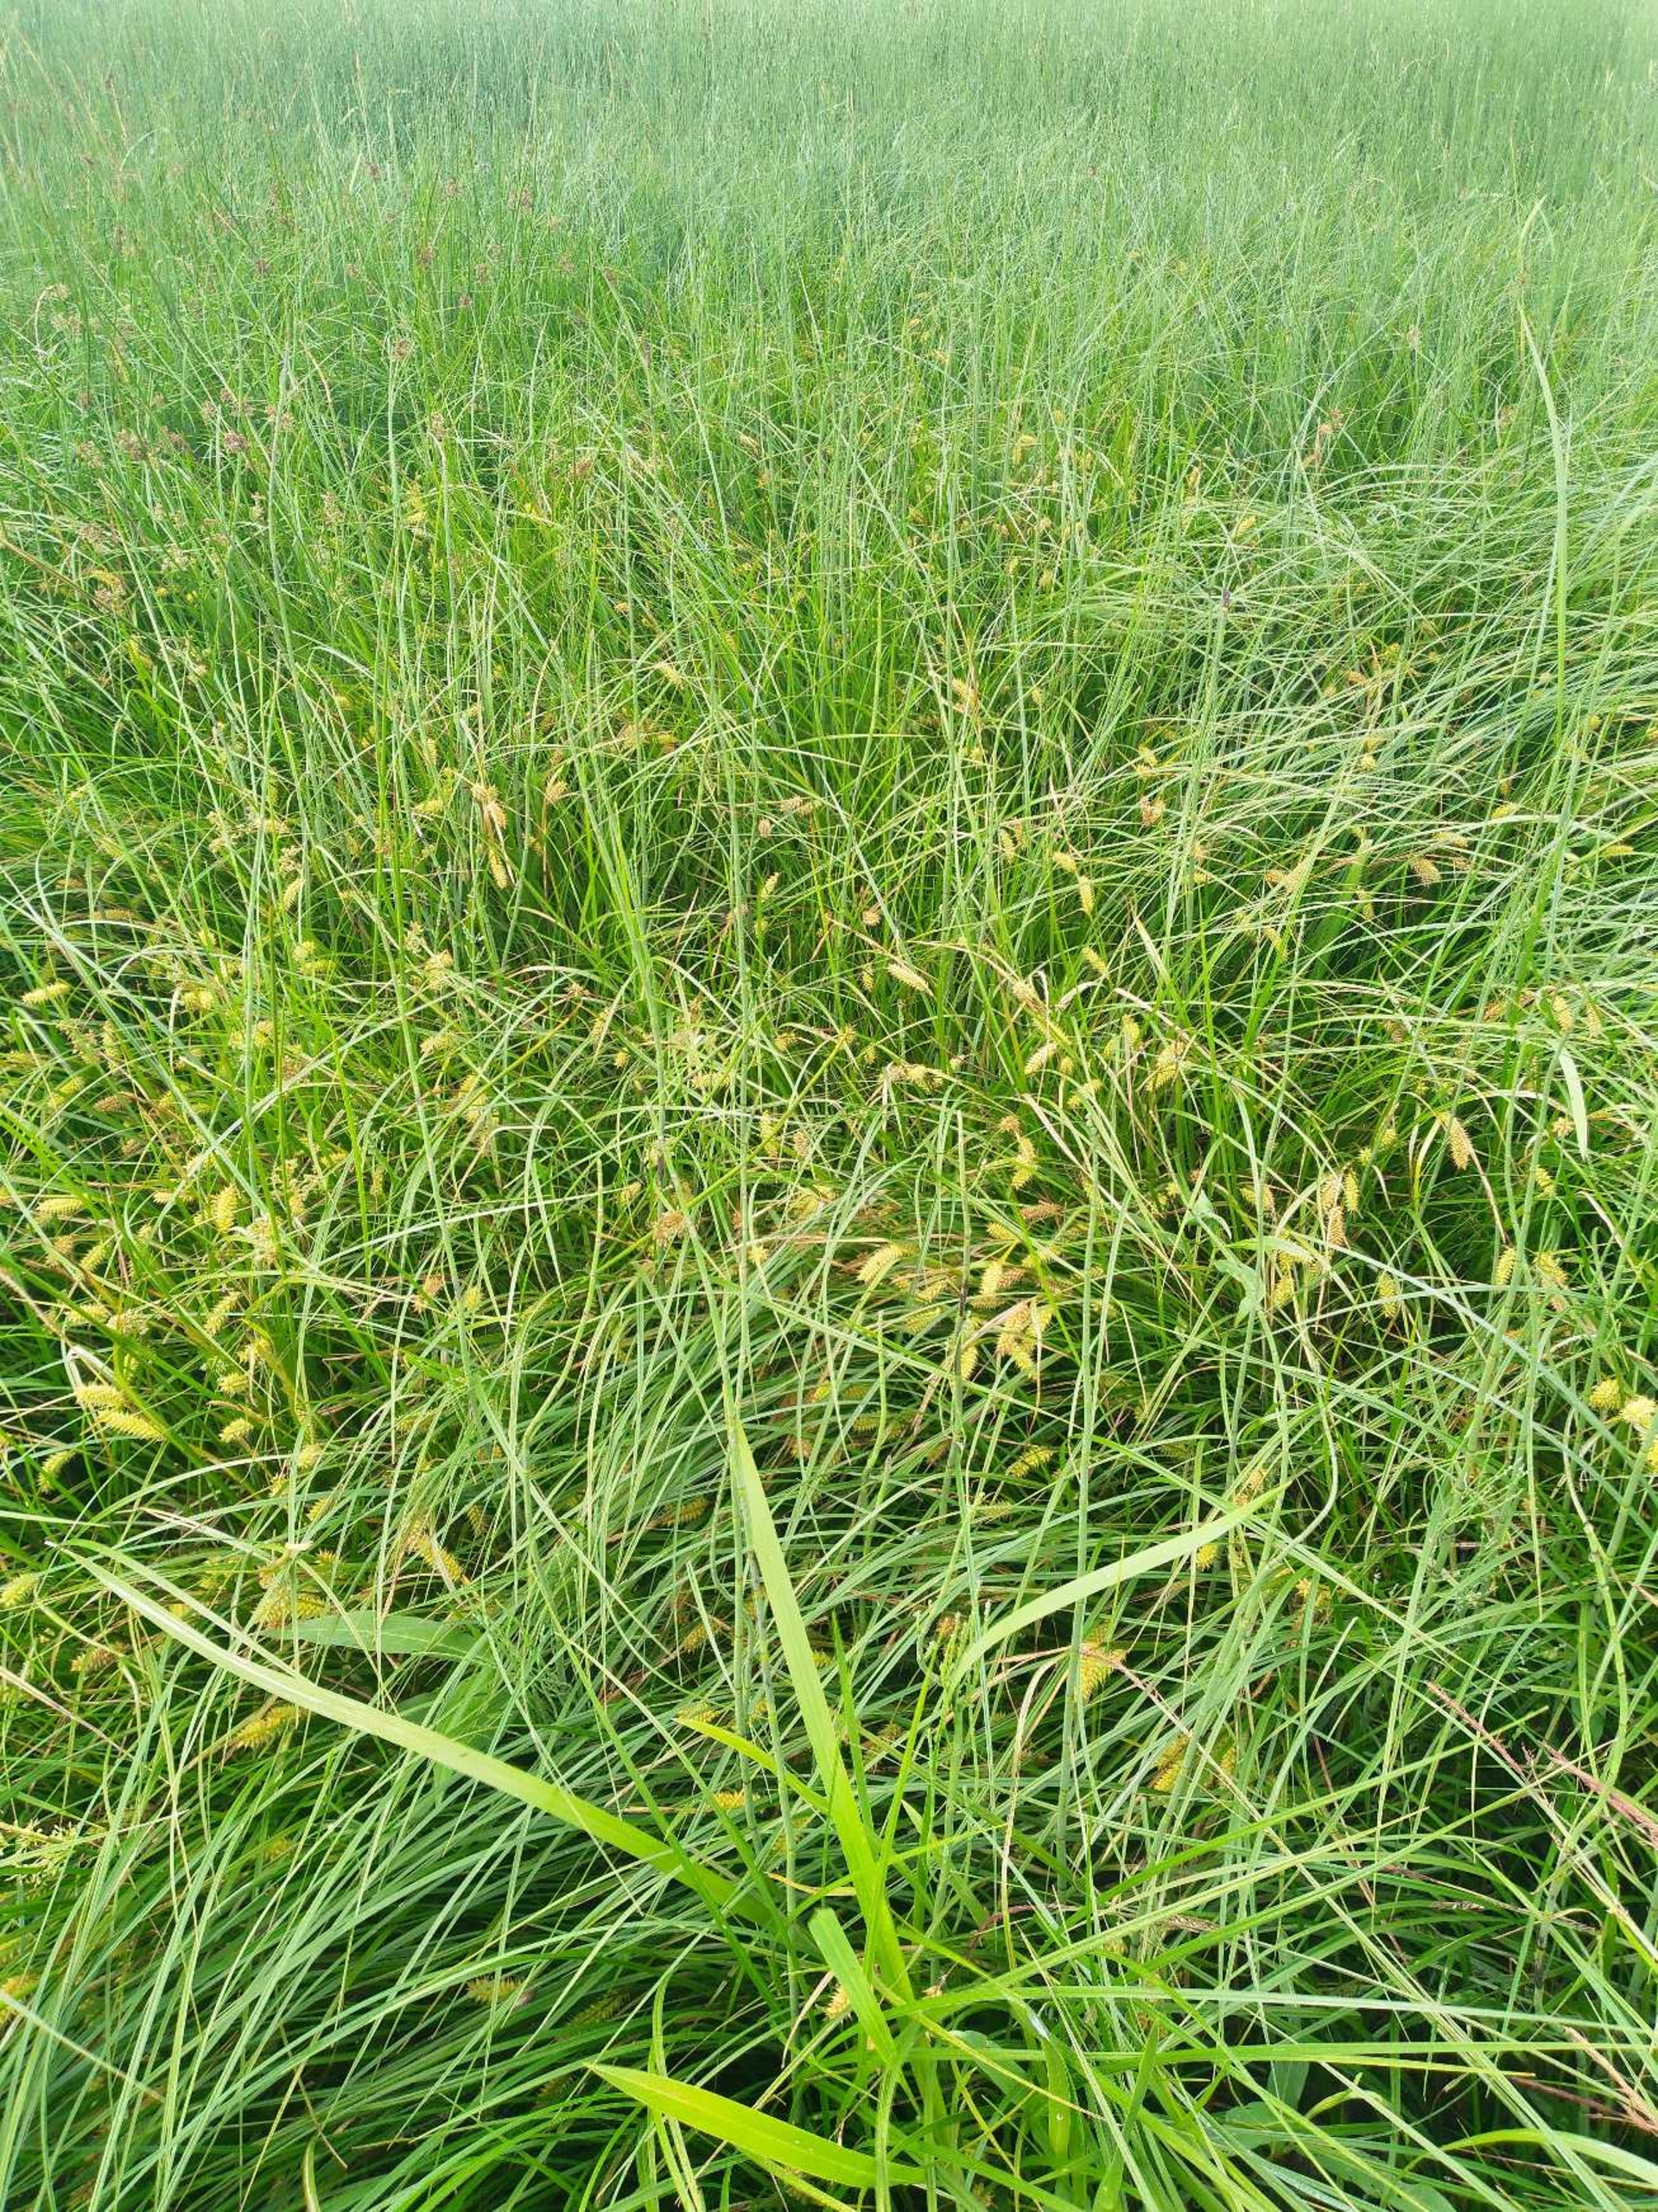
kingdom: Plantae
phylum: Tracheophyta
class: Liliopsida
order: Poales
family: Cyperaceae
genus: Carex
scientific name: Carex rostrata
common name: Næb-star
